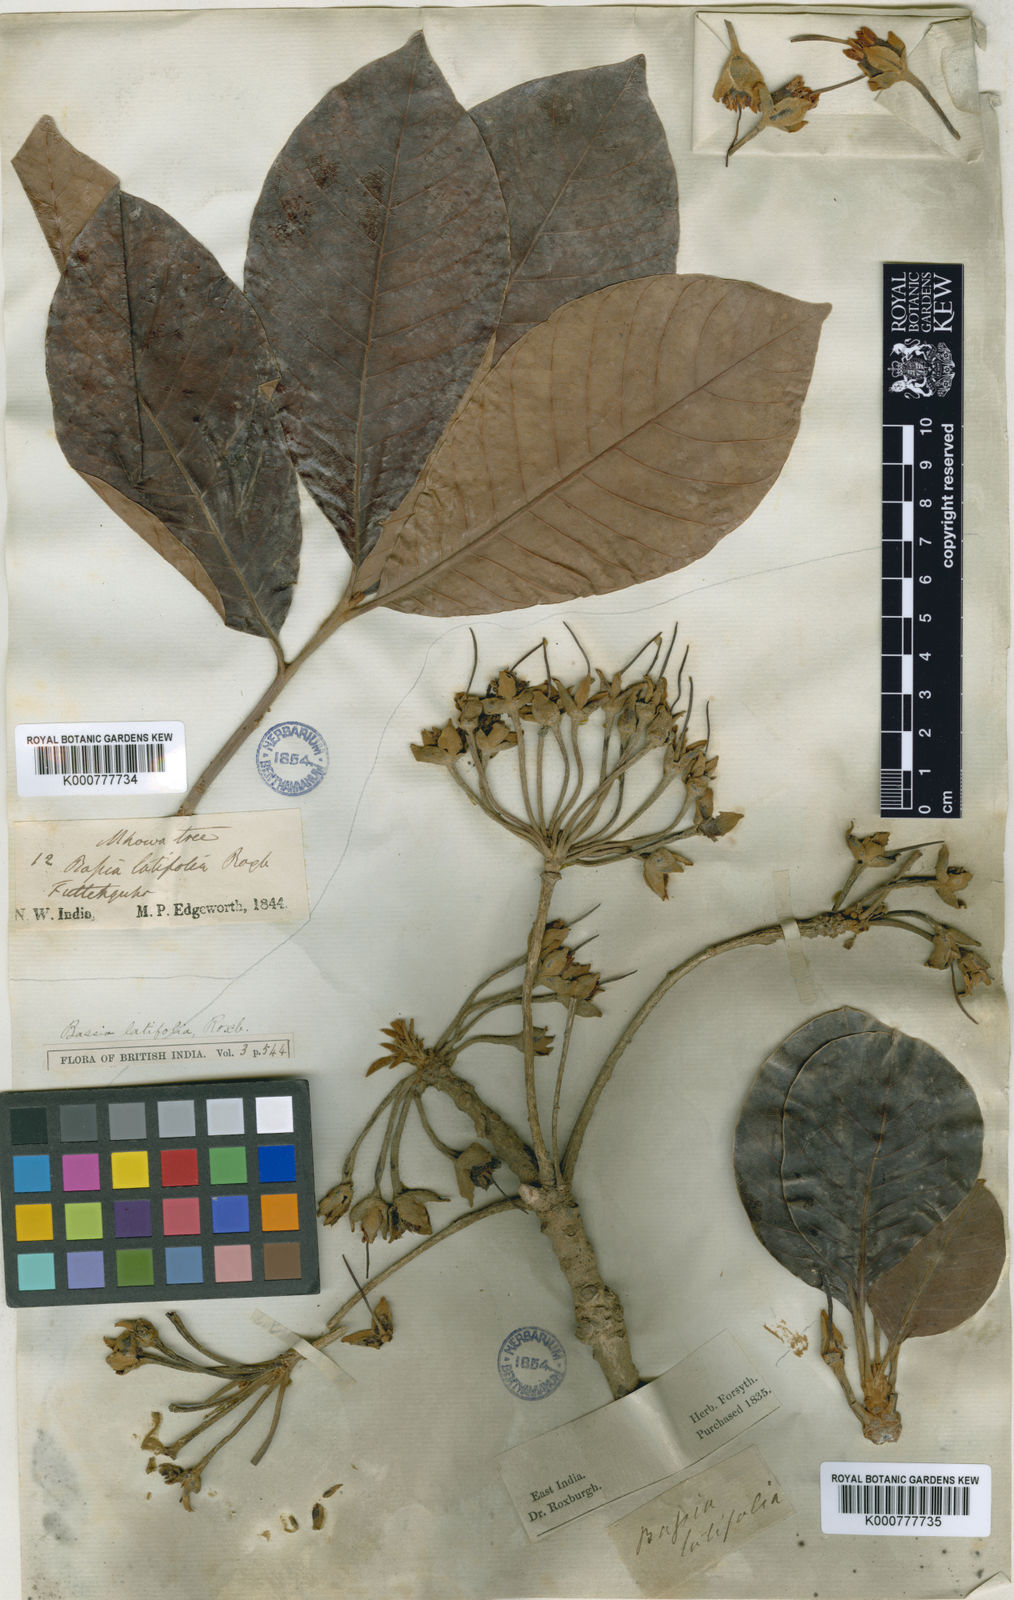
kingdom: Plantae
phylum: Tracheophyta
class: Magnoliopsida
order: Ericales
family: Sapotaceae
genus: Madhuca
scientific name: Madhuca longifolia
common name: Mowra-buttertree
